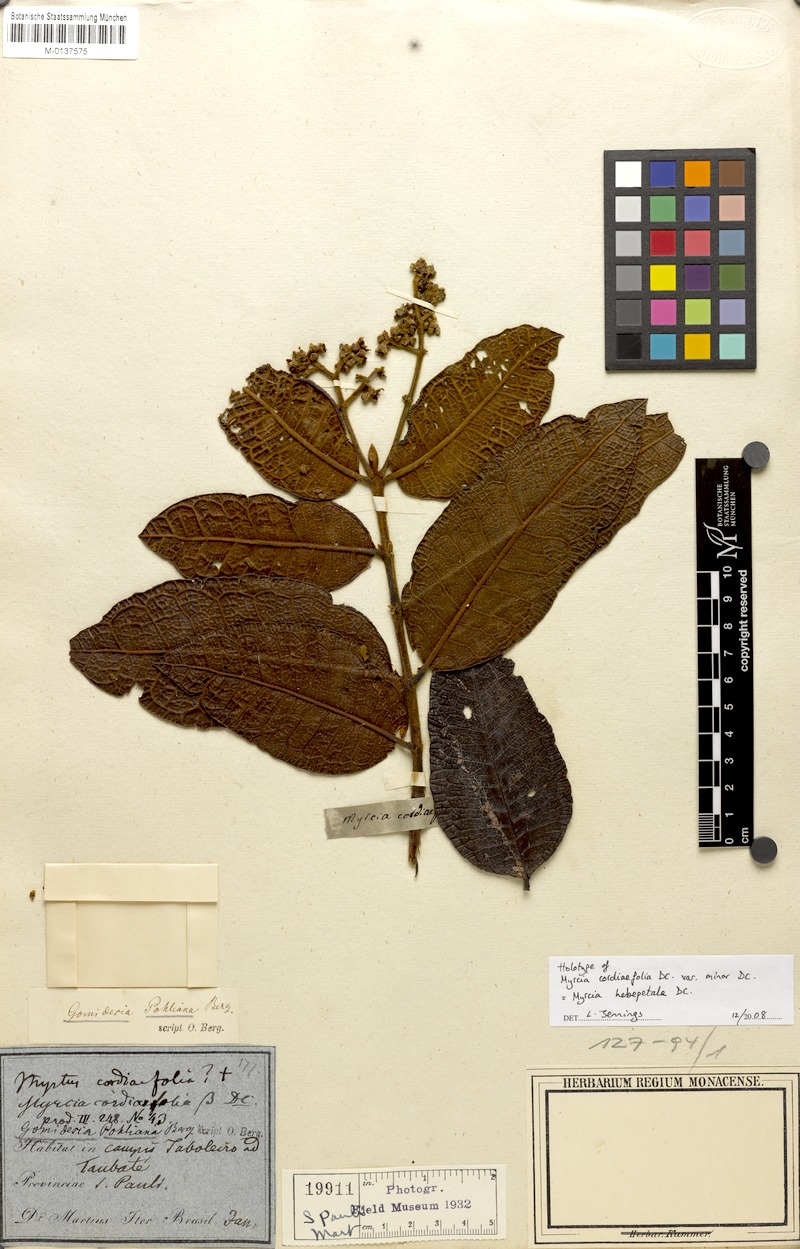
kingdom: Plantae
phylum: Tracheophyta
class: Magnoliopsida
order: Myrtales
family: Myrtaceae
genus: Myrcia
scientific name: Myrcia hebepetala
